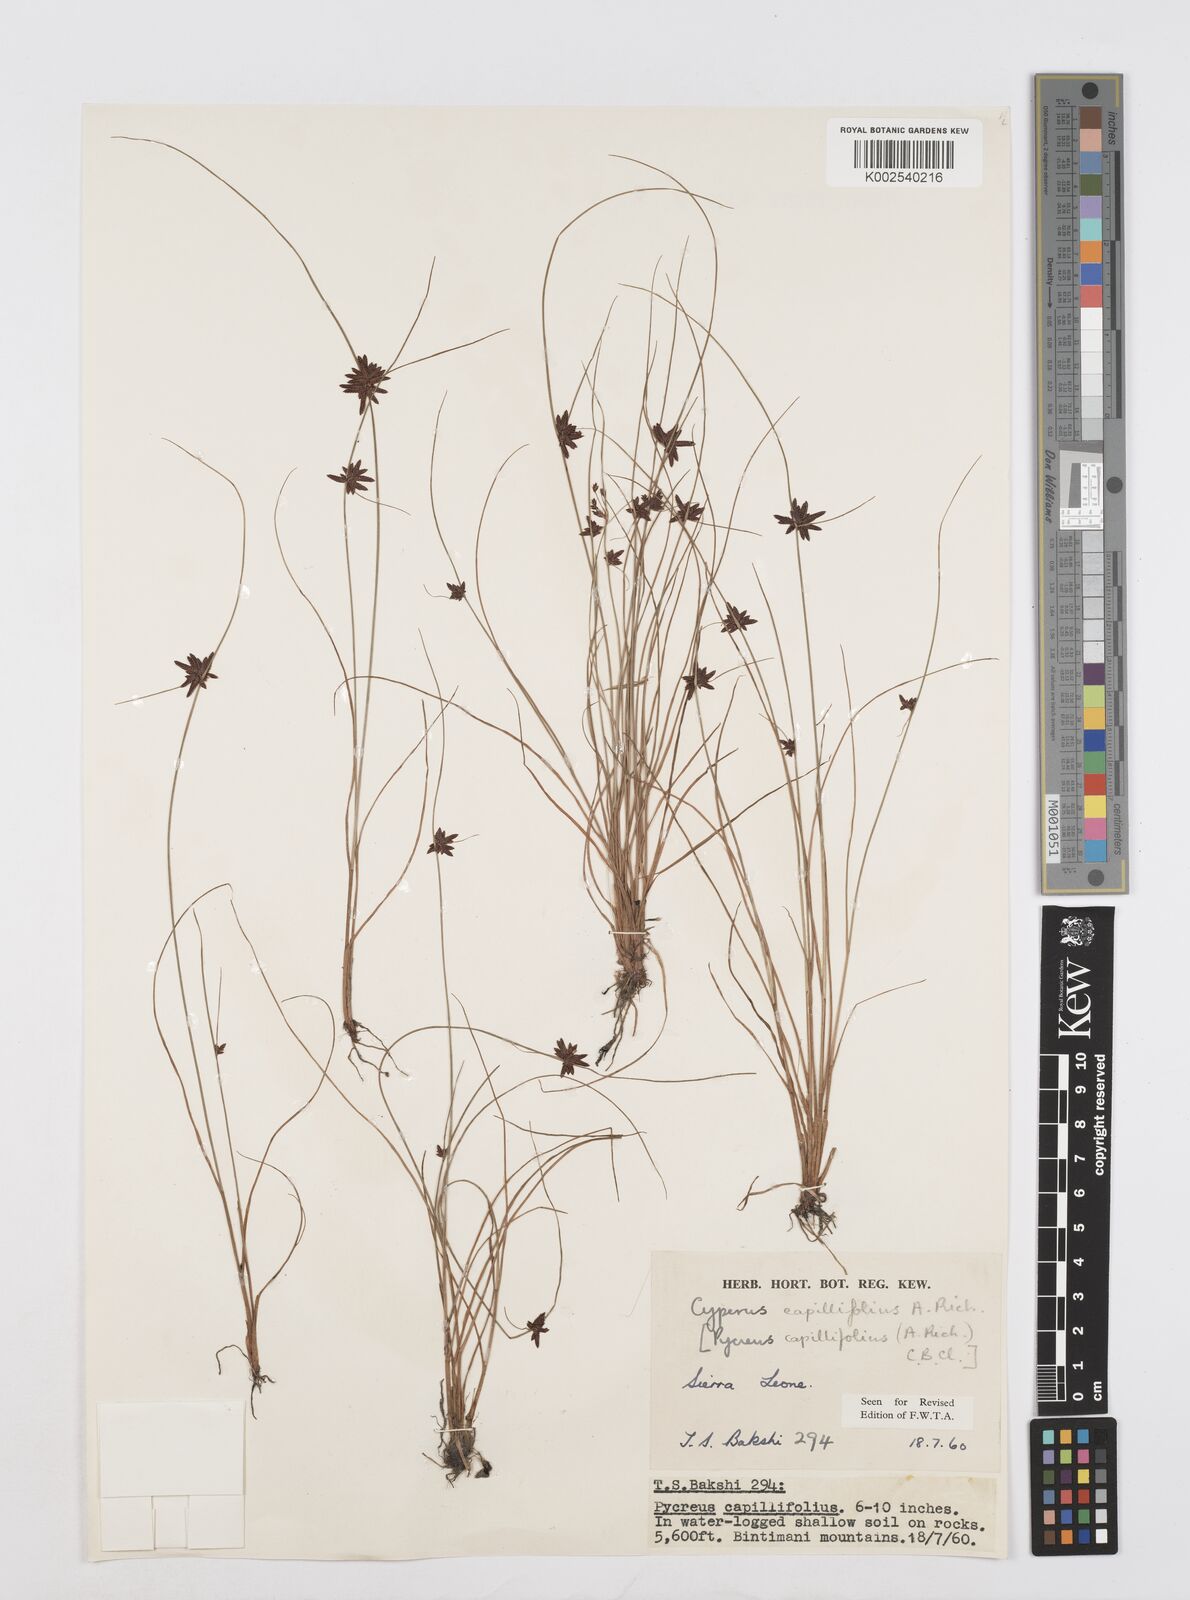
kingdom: Plantae
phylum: Tracheophyta
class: Liliopsida
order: Poales
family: Cyperaceae
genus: Cyperus
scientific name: Cyperus capillifolius
